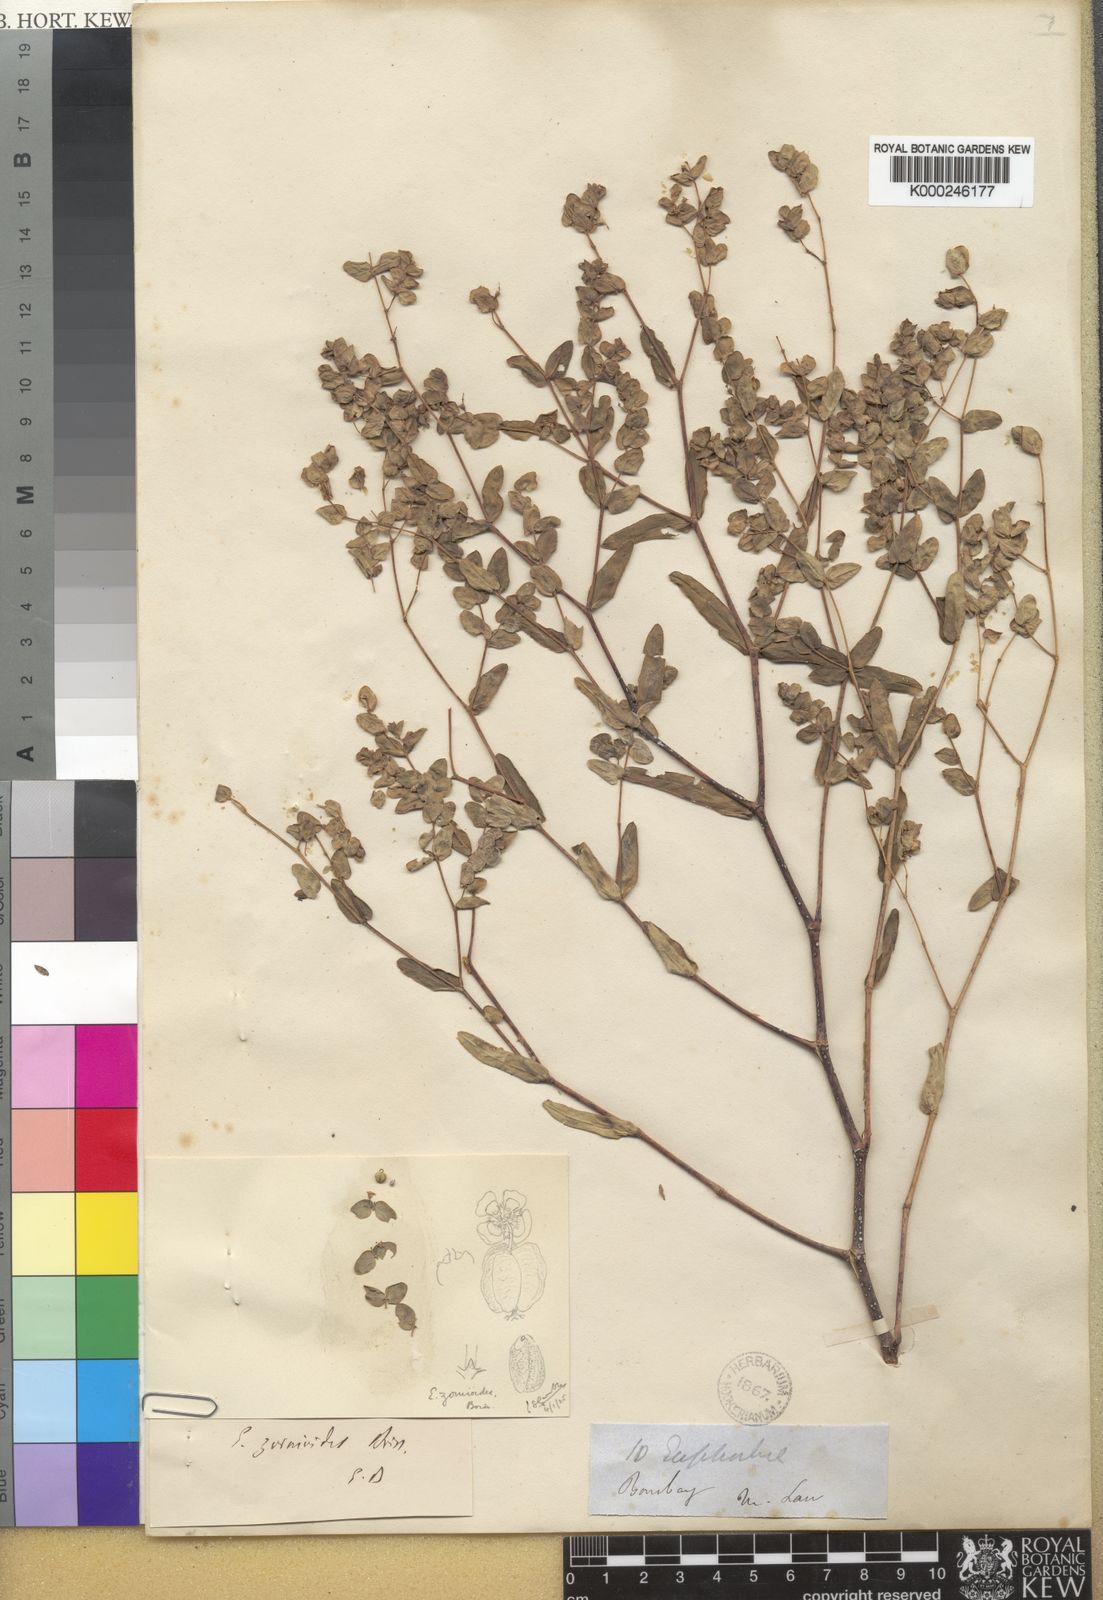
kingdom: Plantae
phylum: Tracheophyta
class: Magnoliopsida
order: Malpighiales
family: Euphorbiaceae
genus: Euphorbia
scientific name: Euphorbia pycnostegia
